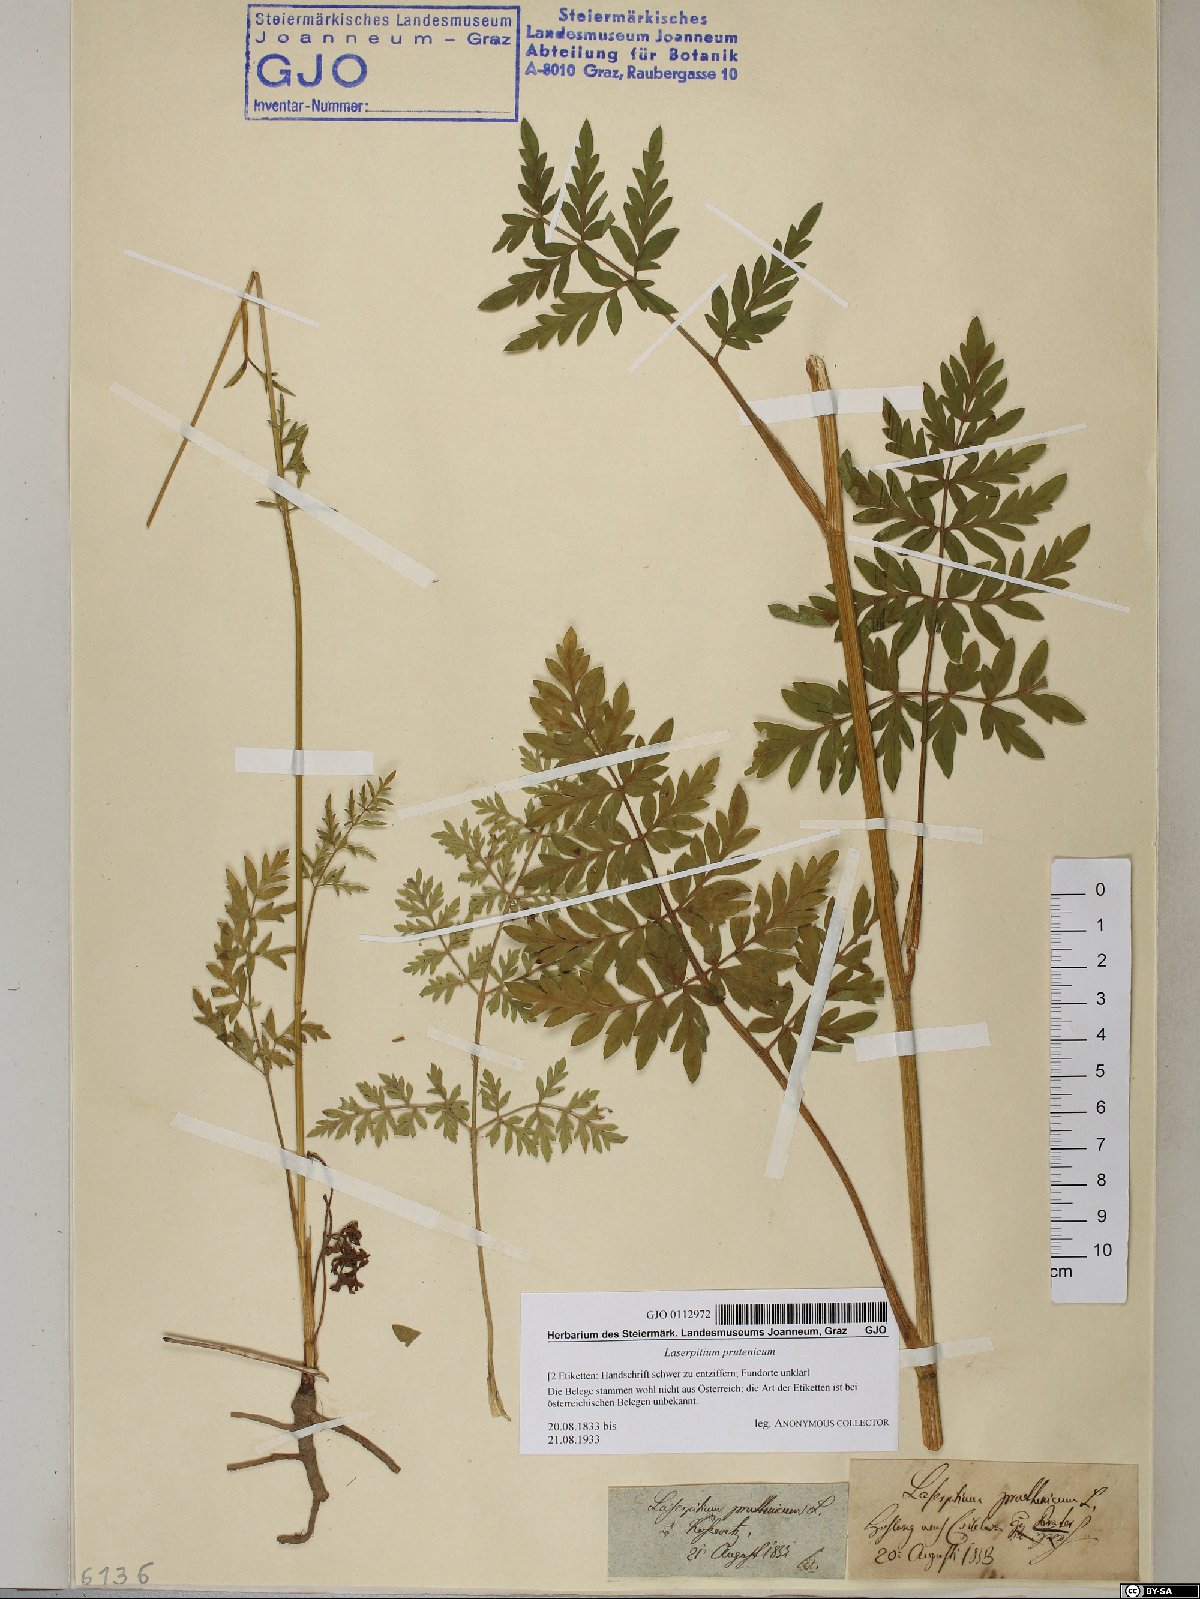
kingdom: Plantae
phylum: Tracheophyta
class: Magnoliopsida
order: Apiales
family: Apiaceae
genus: Silphiodaucus
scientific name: Silphiodaucus prutenicus
